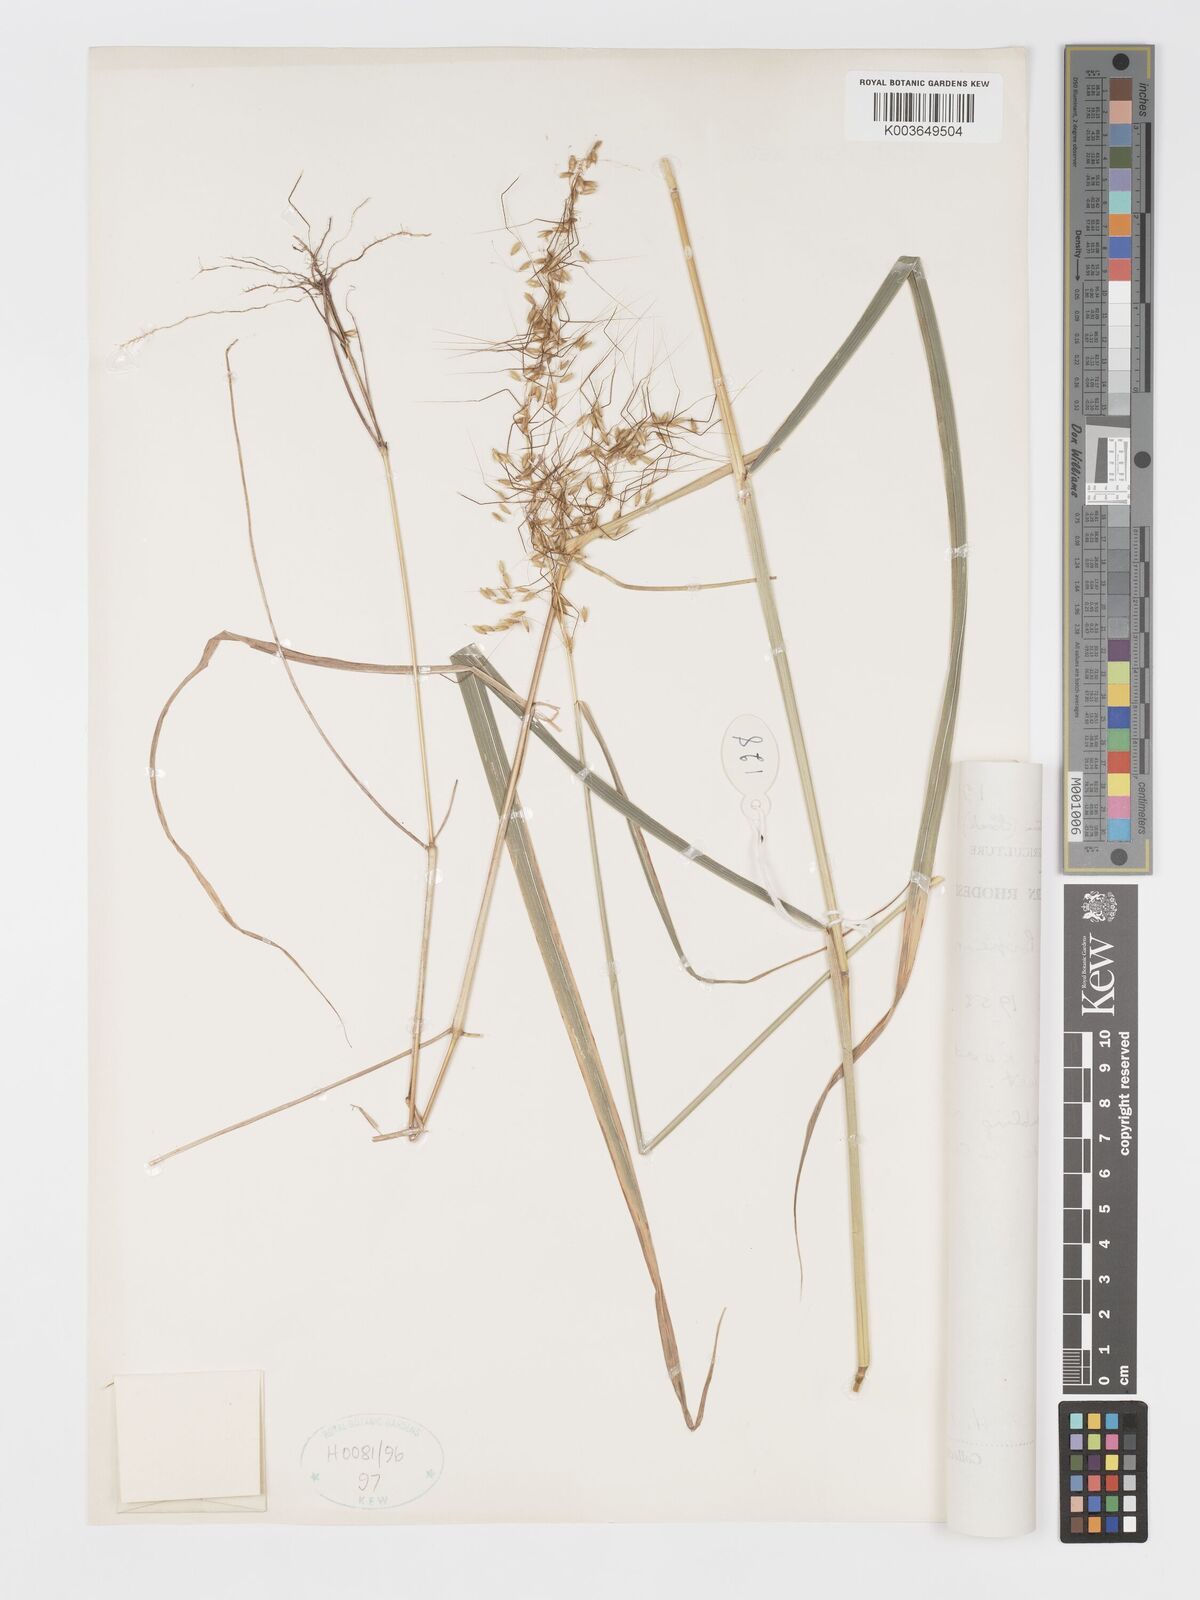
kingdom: Plantae
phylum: Tracheophyta
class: Liliopsida
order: Poales
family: Poaceae
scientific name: Poaceae
